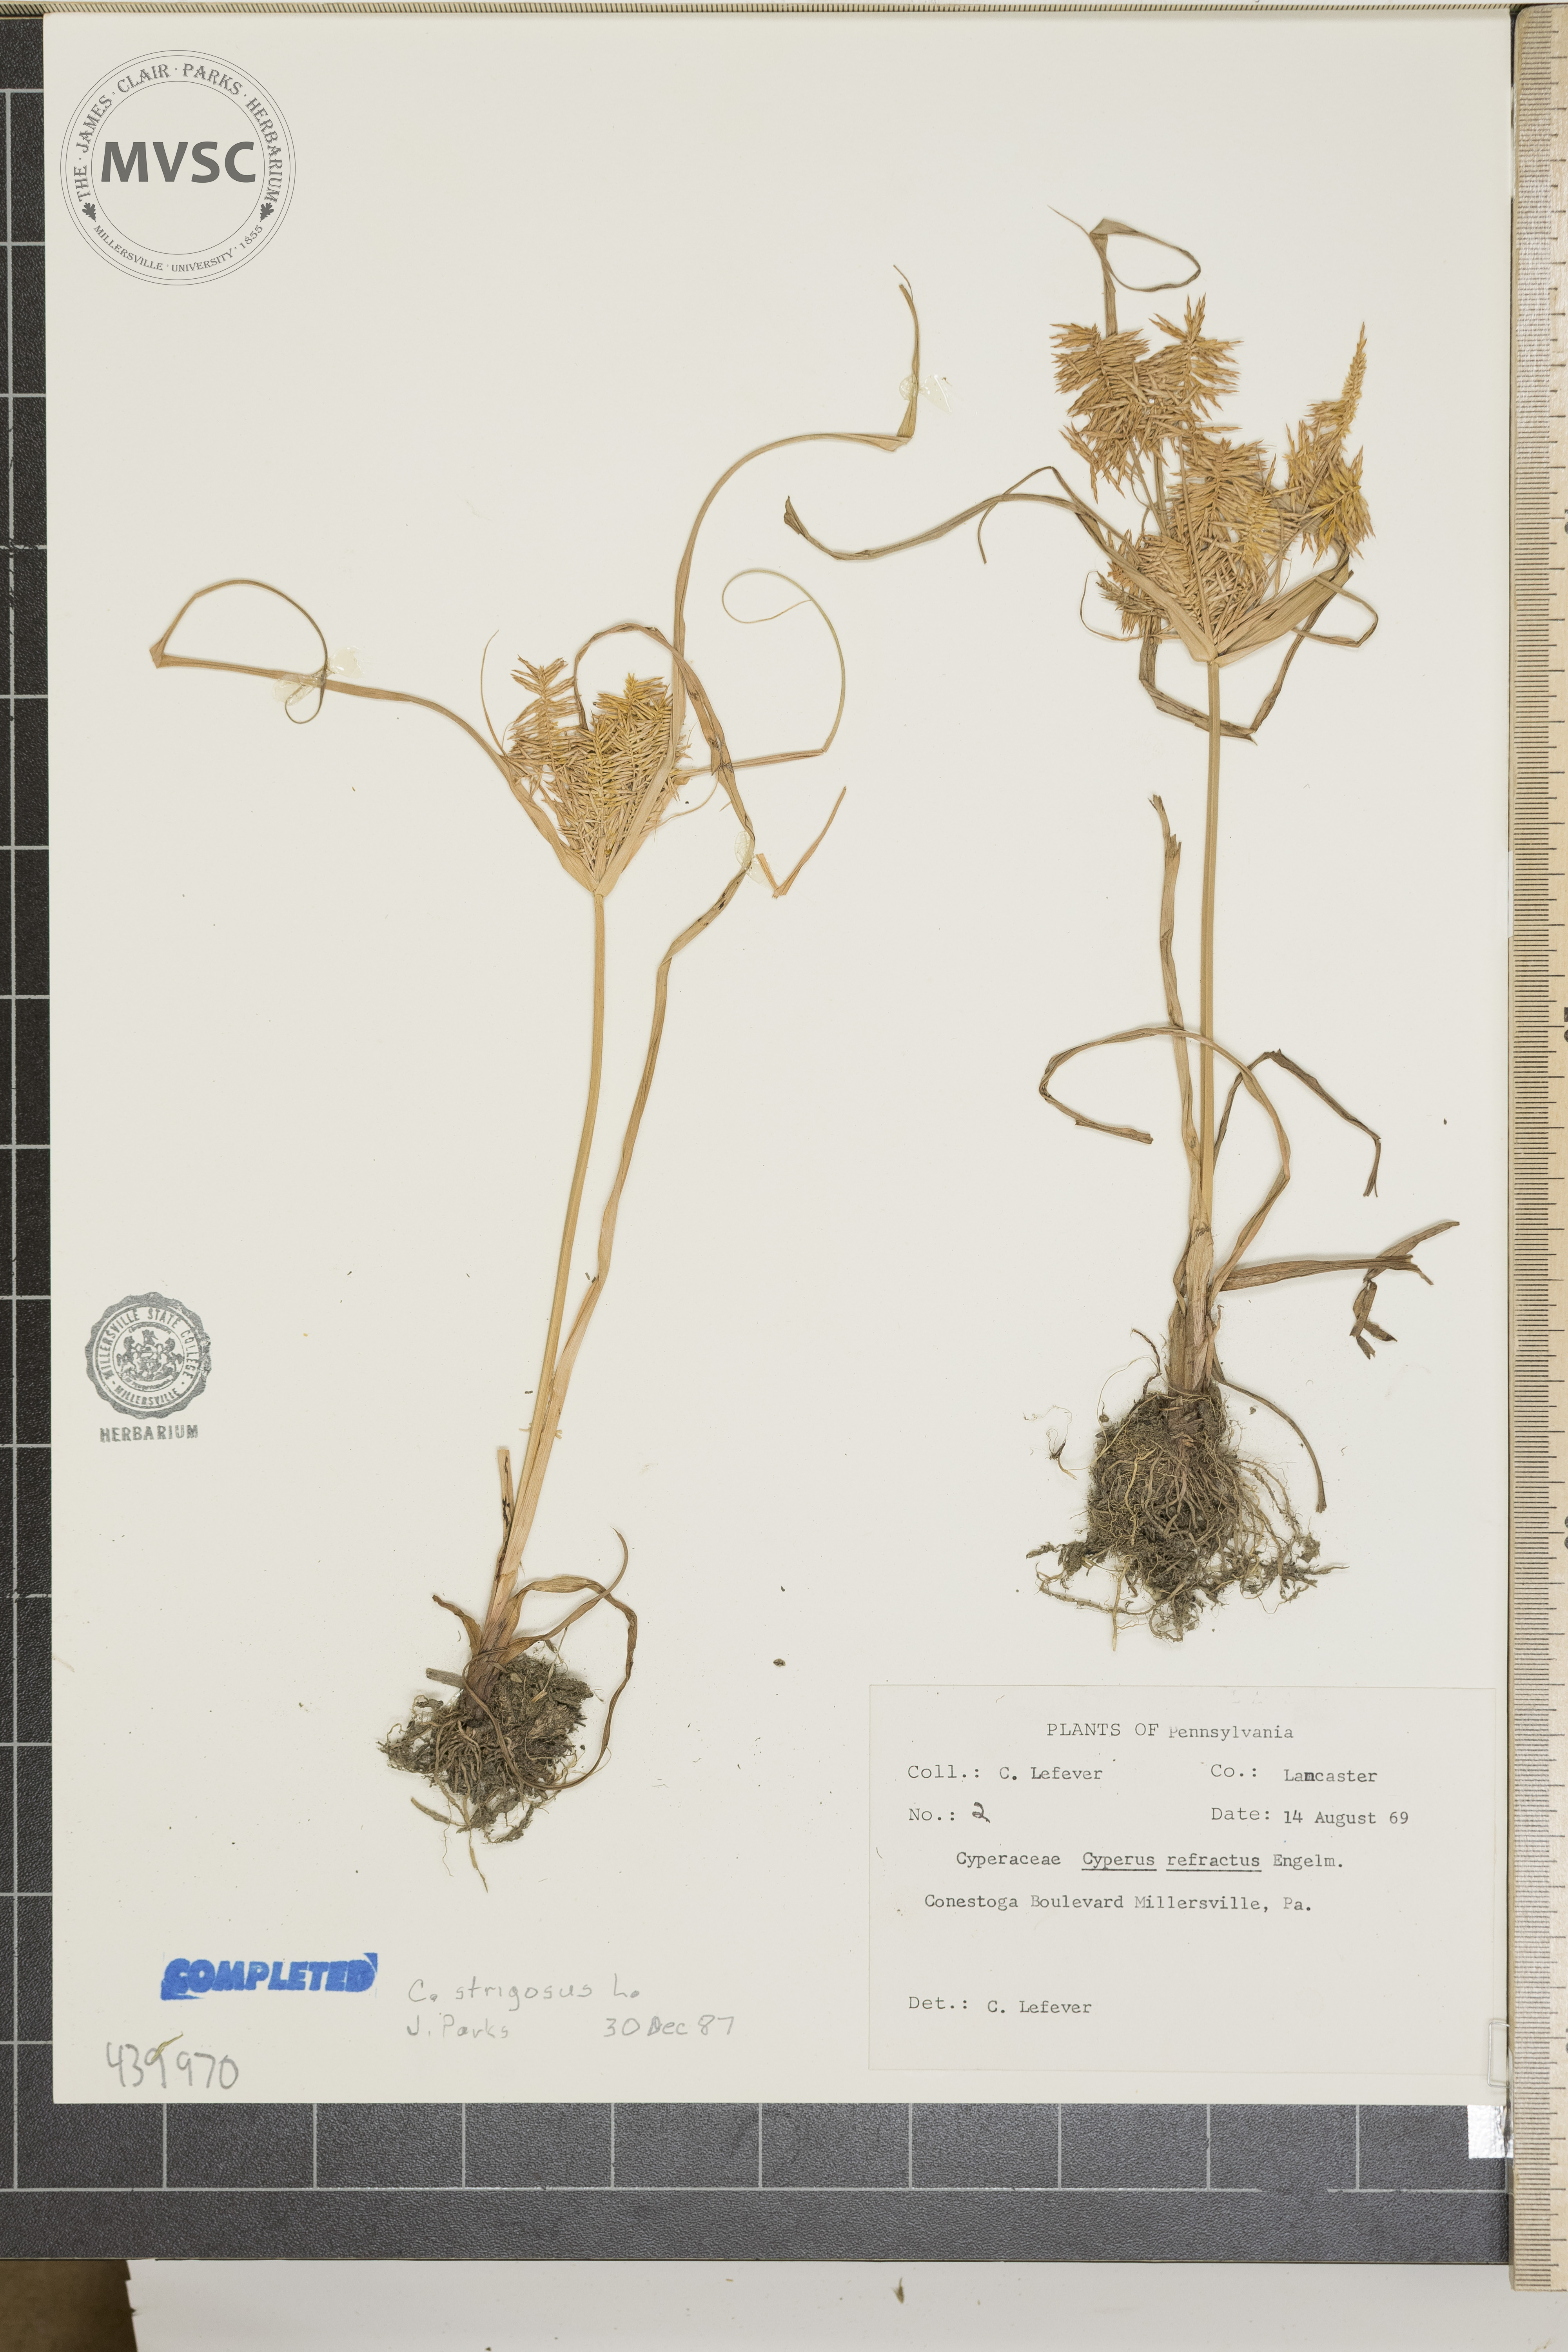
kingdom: Plantae
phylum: Tracheophyta
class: Liliopsida
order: Poales
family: Cyperaceae
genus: Cyperus
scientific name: Cyperus strigosus
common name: False nutsedge
